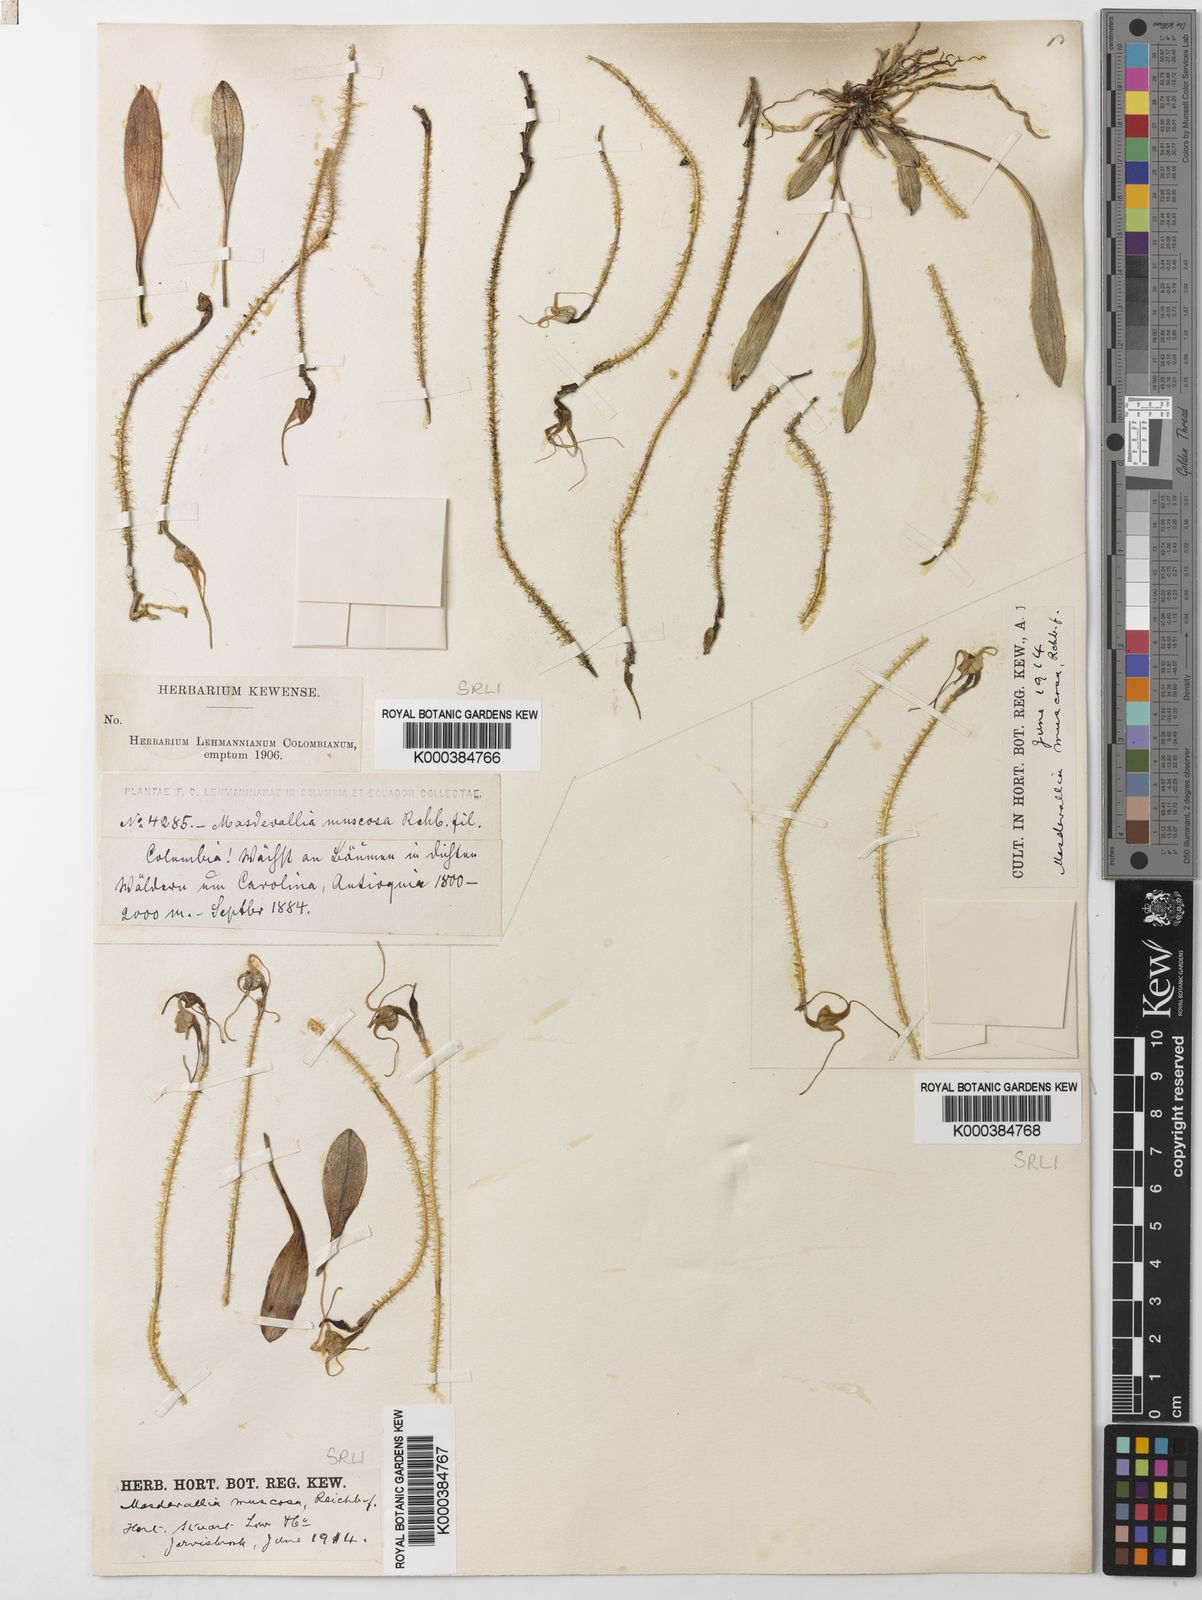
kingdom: Plantae
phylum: Tracheophyta
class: Liliopsida
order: Asparagales
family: Orchidaceae
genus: Porroglossum
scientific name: Porroglossum muscosum
